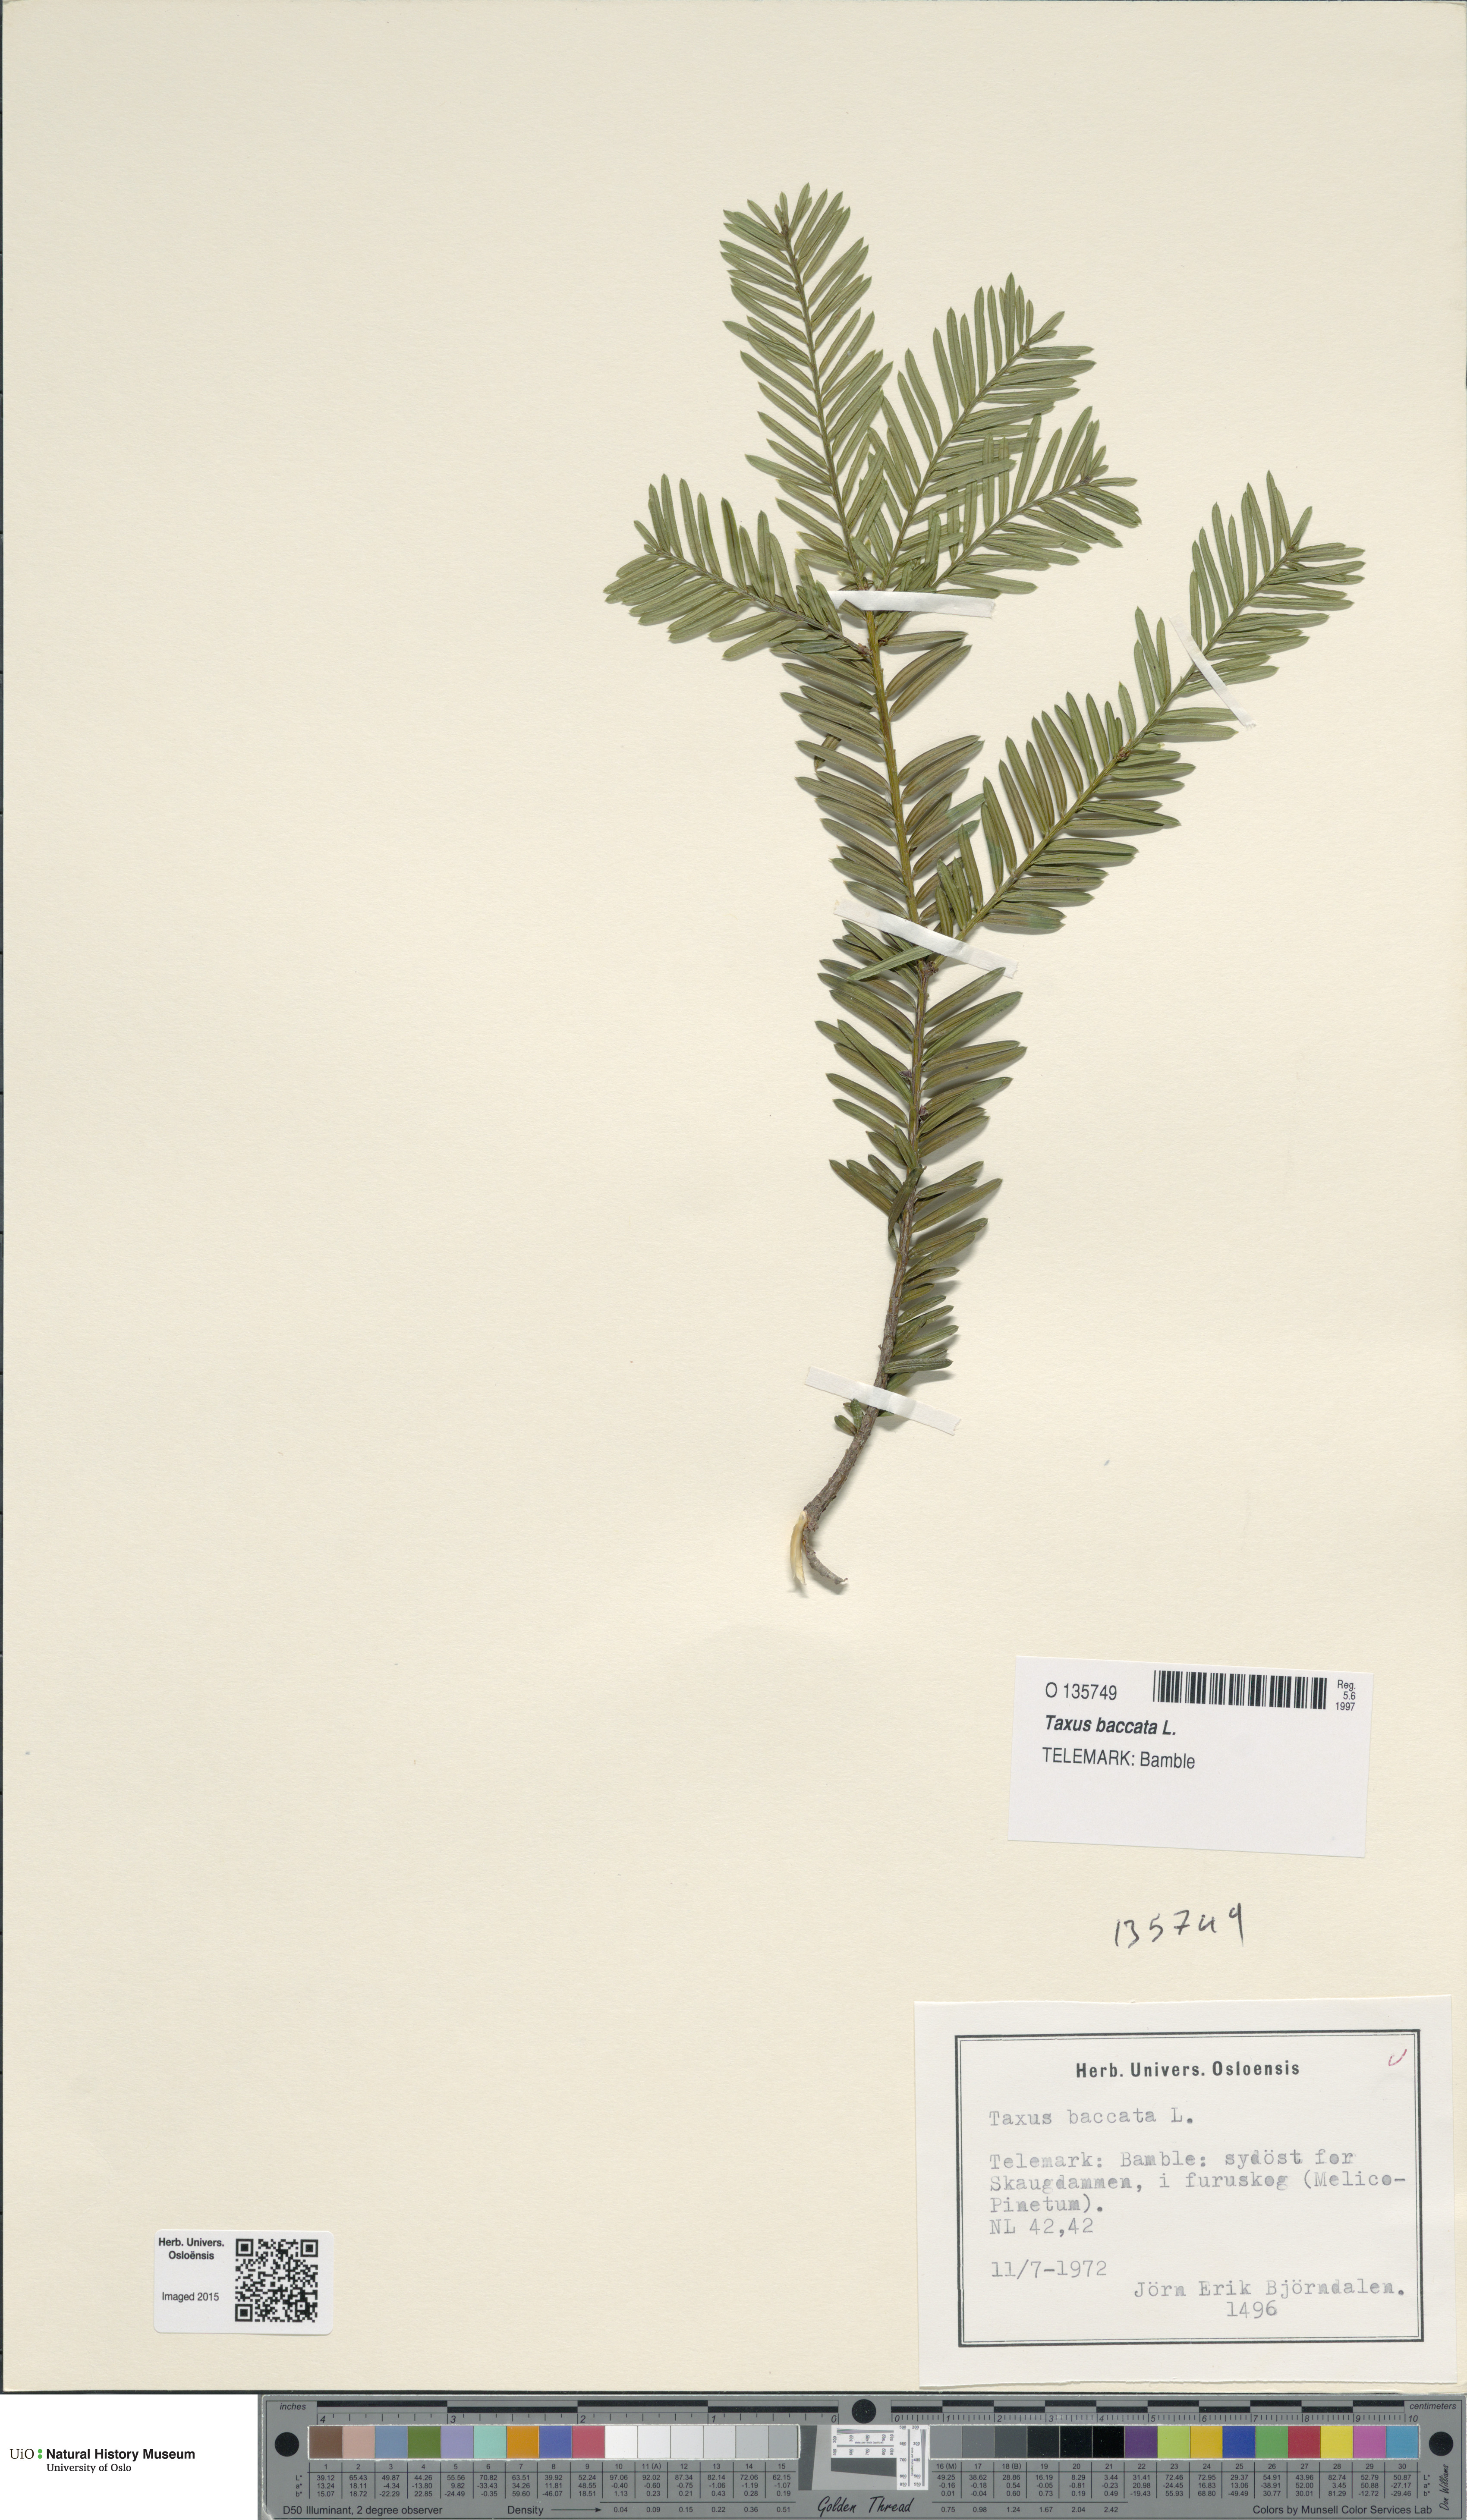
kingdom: Plantae
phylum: Tracheophyta
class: Pinopsida
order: Pinales
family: Taxaceae
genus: Taxus
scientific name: Taxus baccata
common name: Yew
